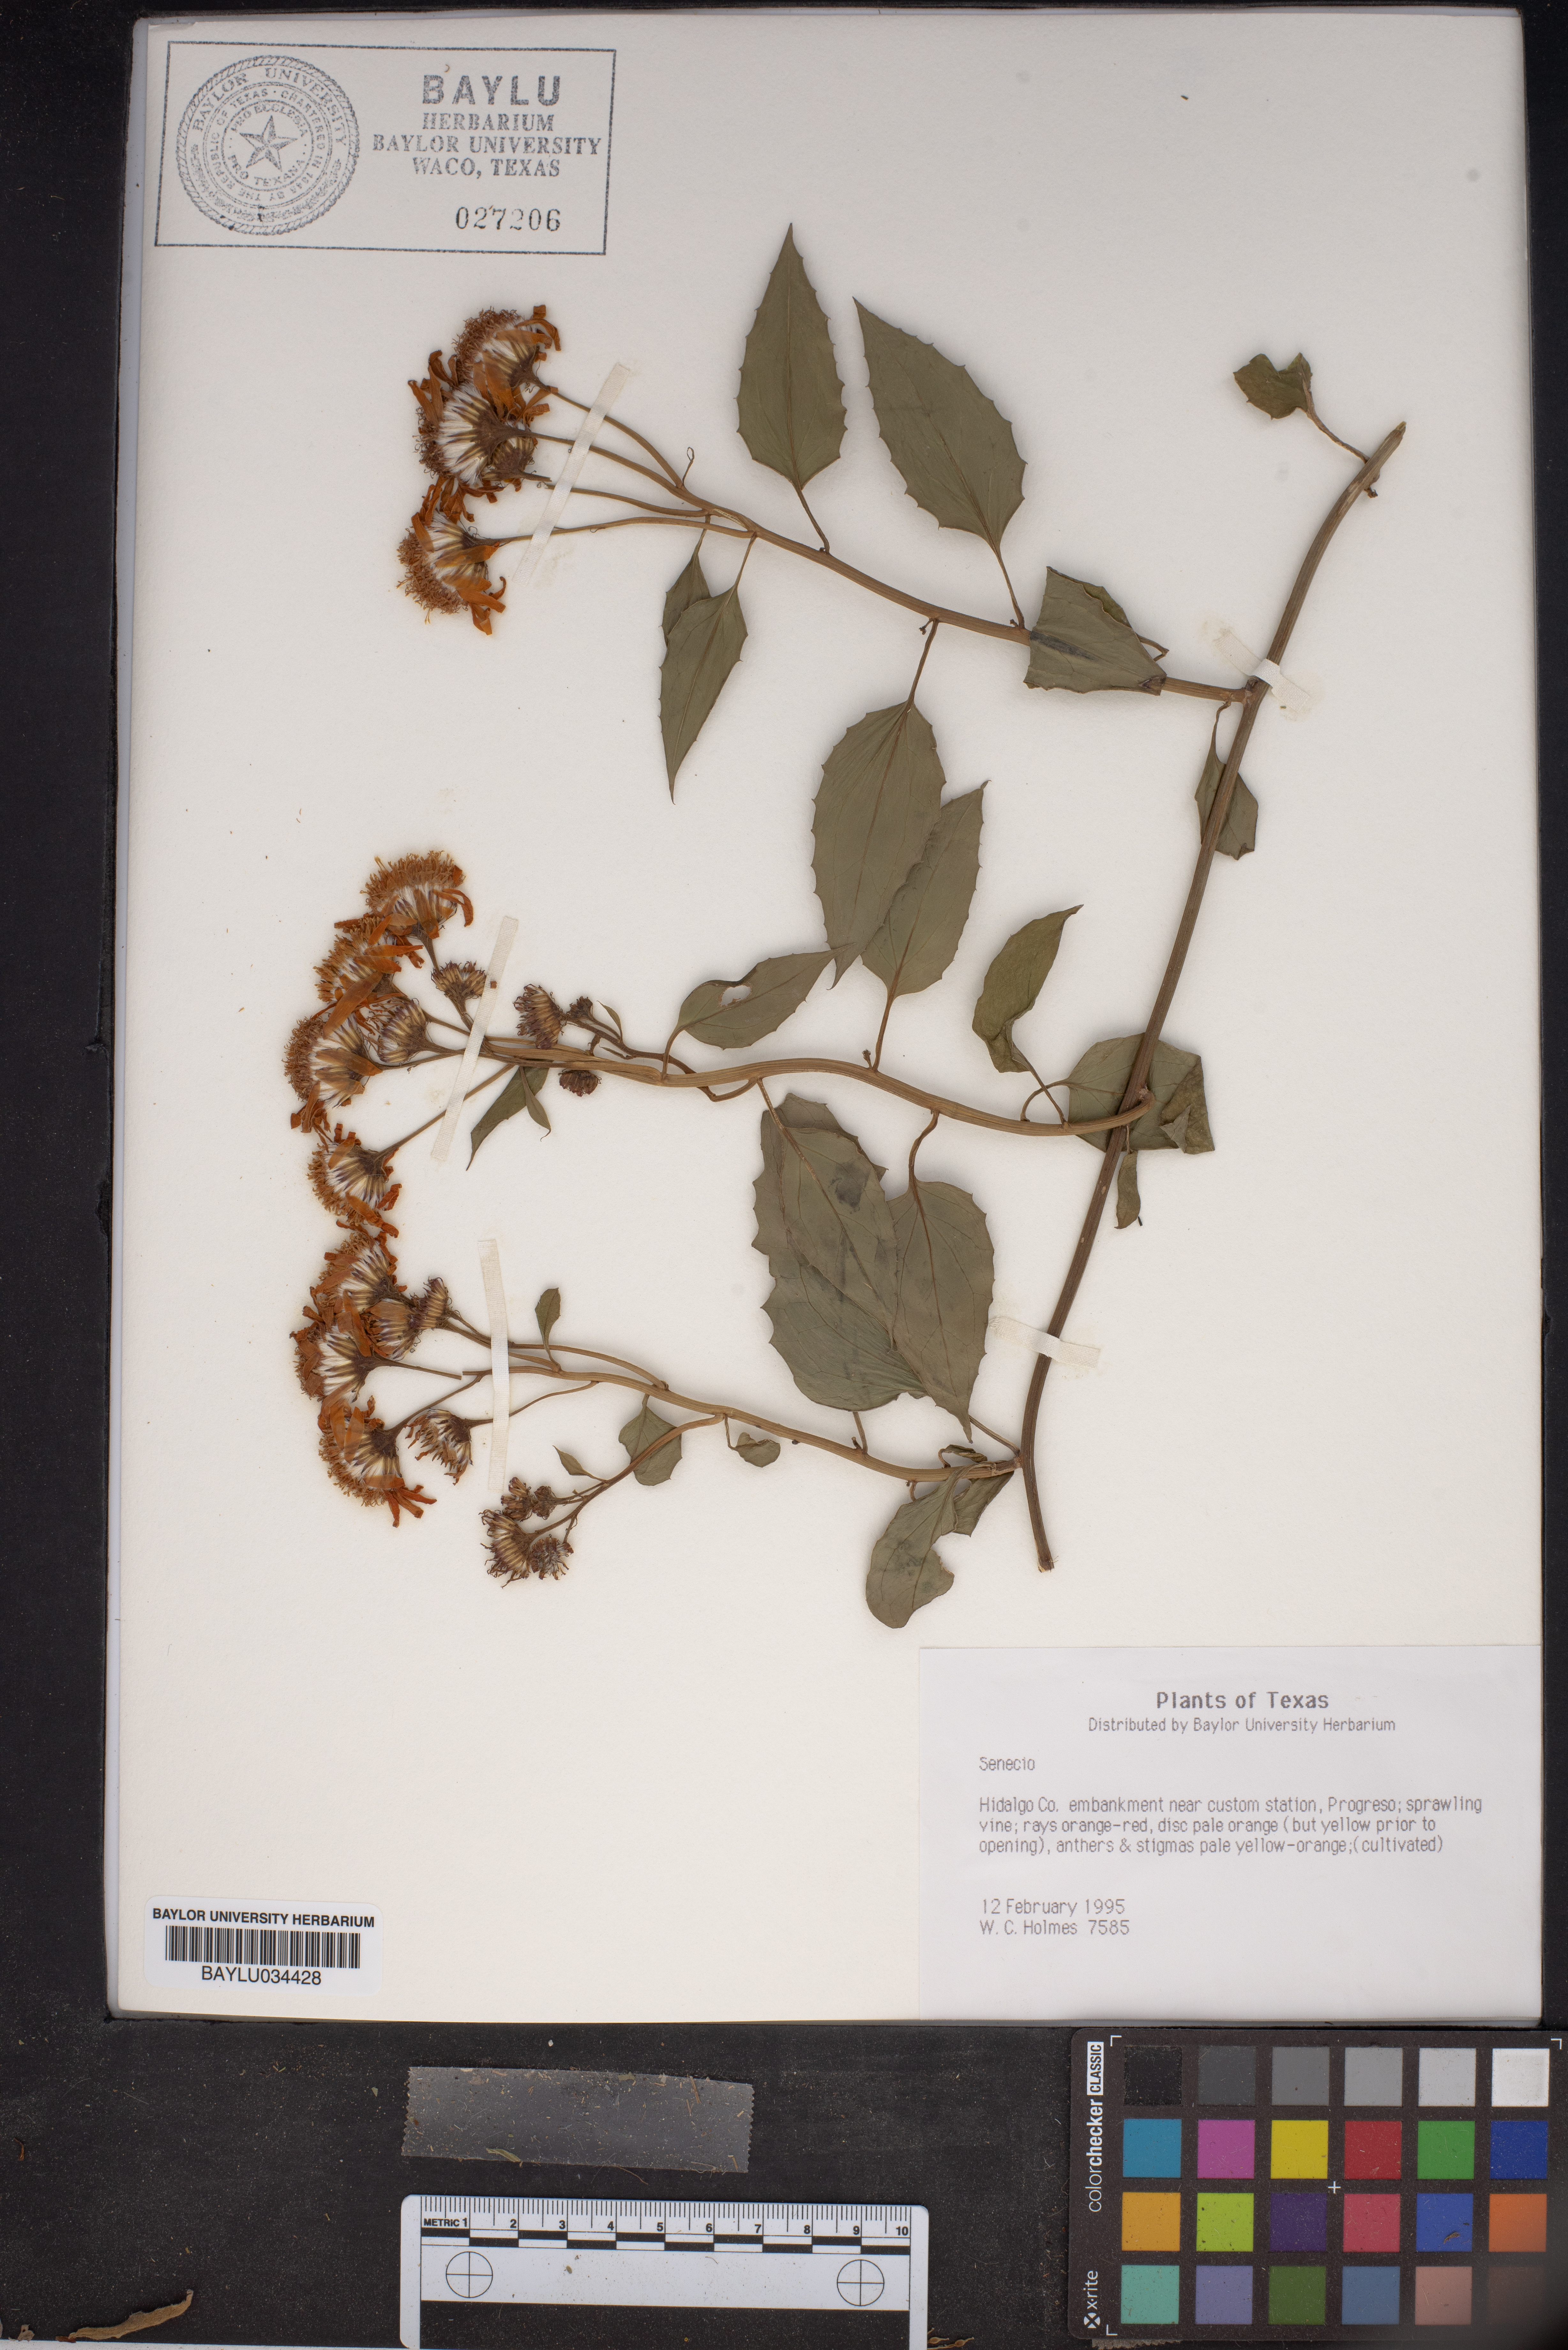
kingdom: Plantae
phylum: Tracheophyta
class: Magnoliopsida
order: Asterales
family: Asteraceae
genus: Senecio
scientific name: Senecio
